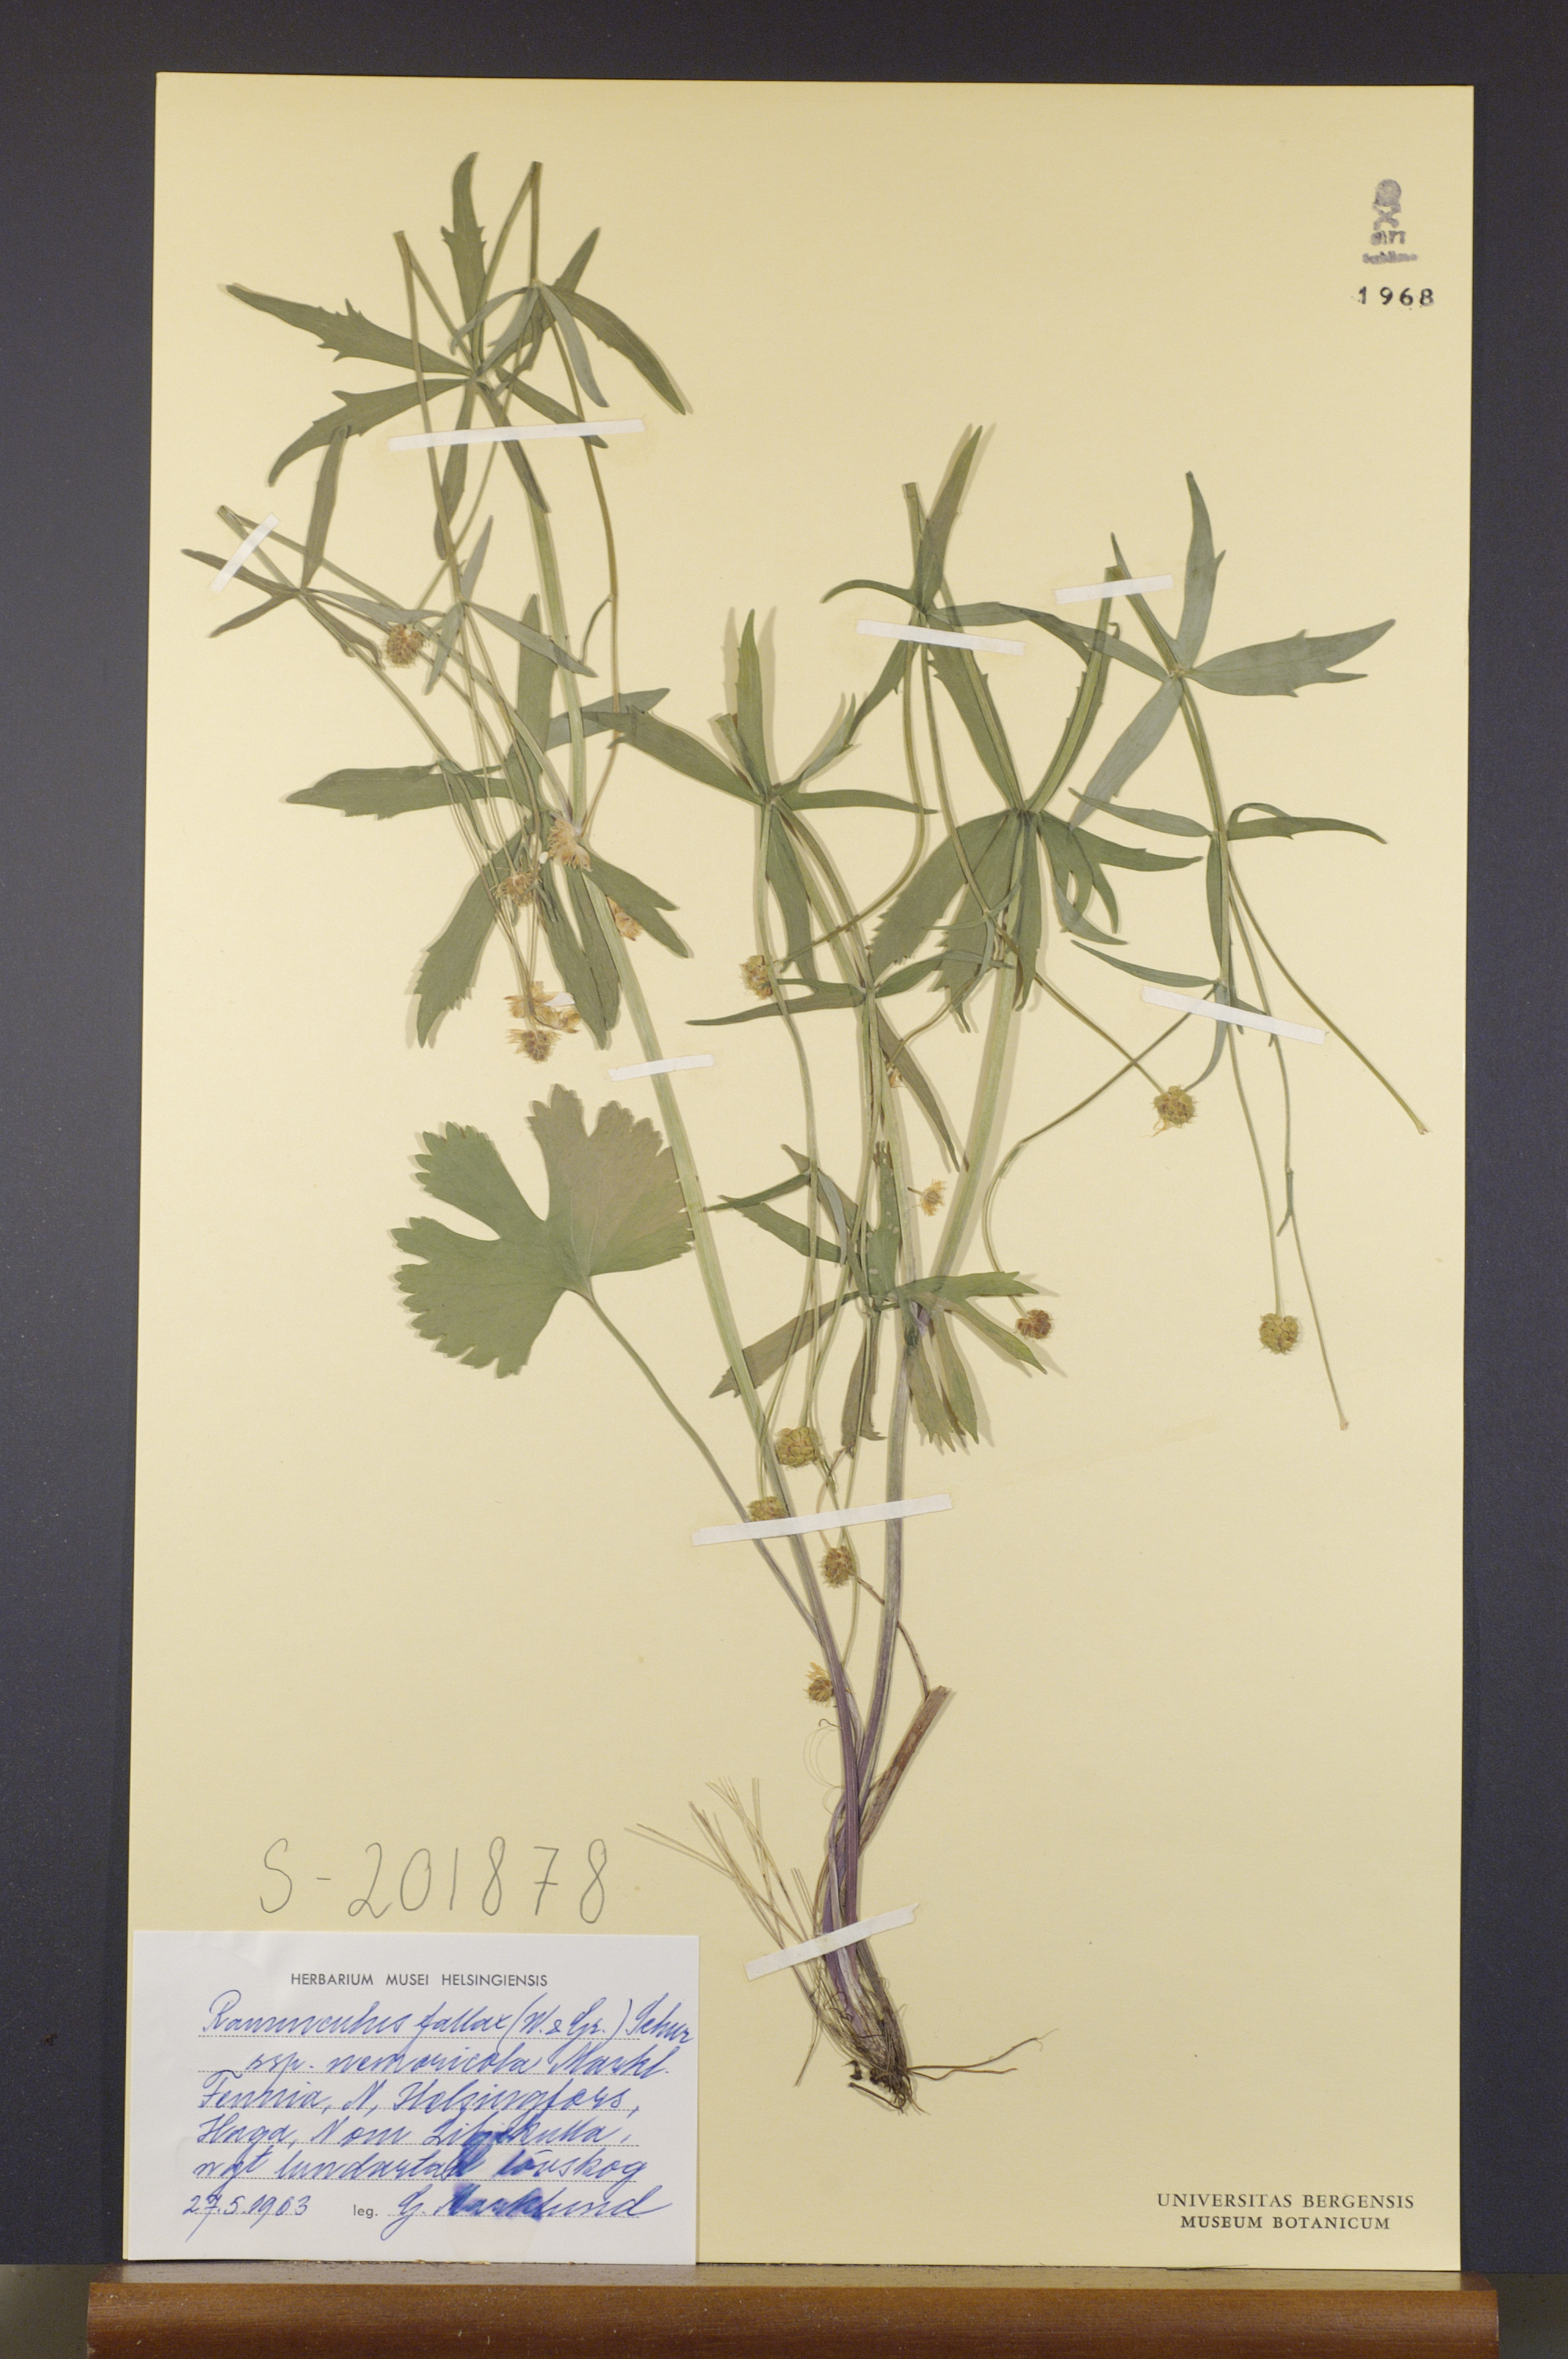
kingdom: Plantae
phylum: Tracheophyta
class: Magnoliopsida
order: Ranunculales
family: Ranunculaceae
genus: Ranunculus
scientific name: Ranunculus nemoricola
